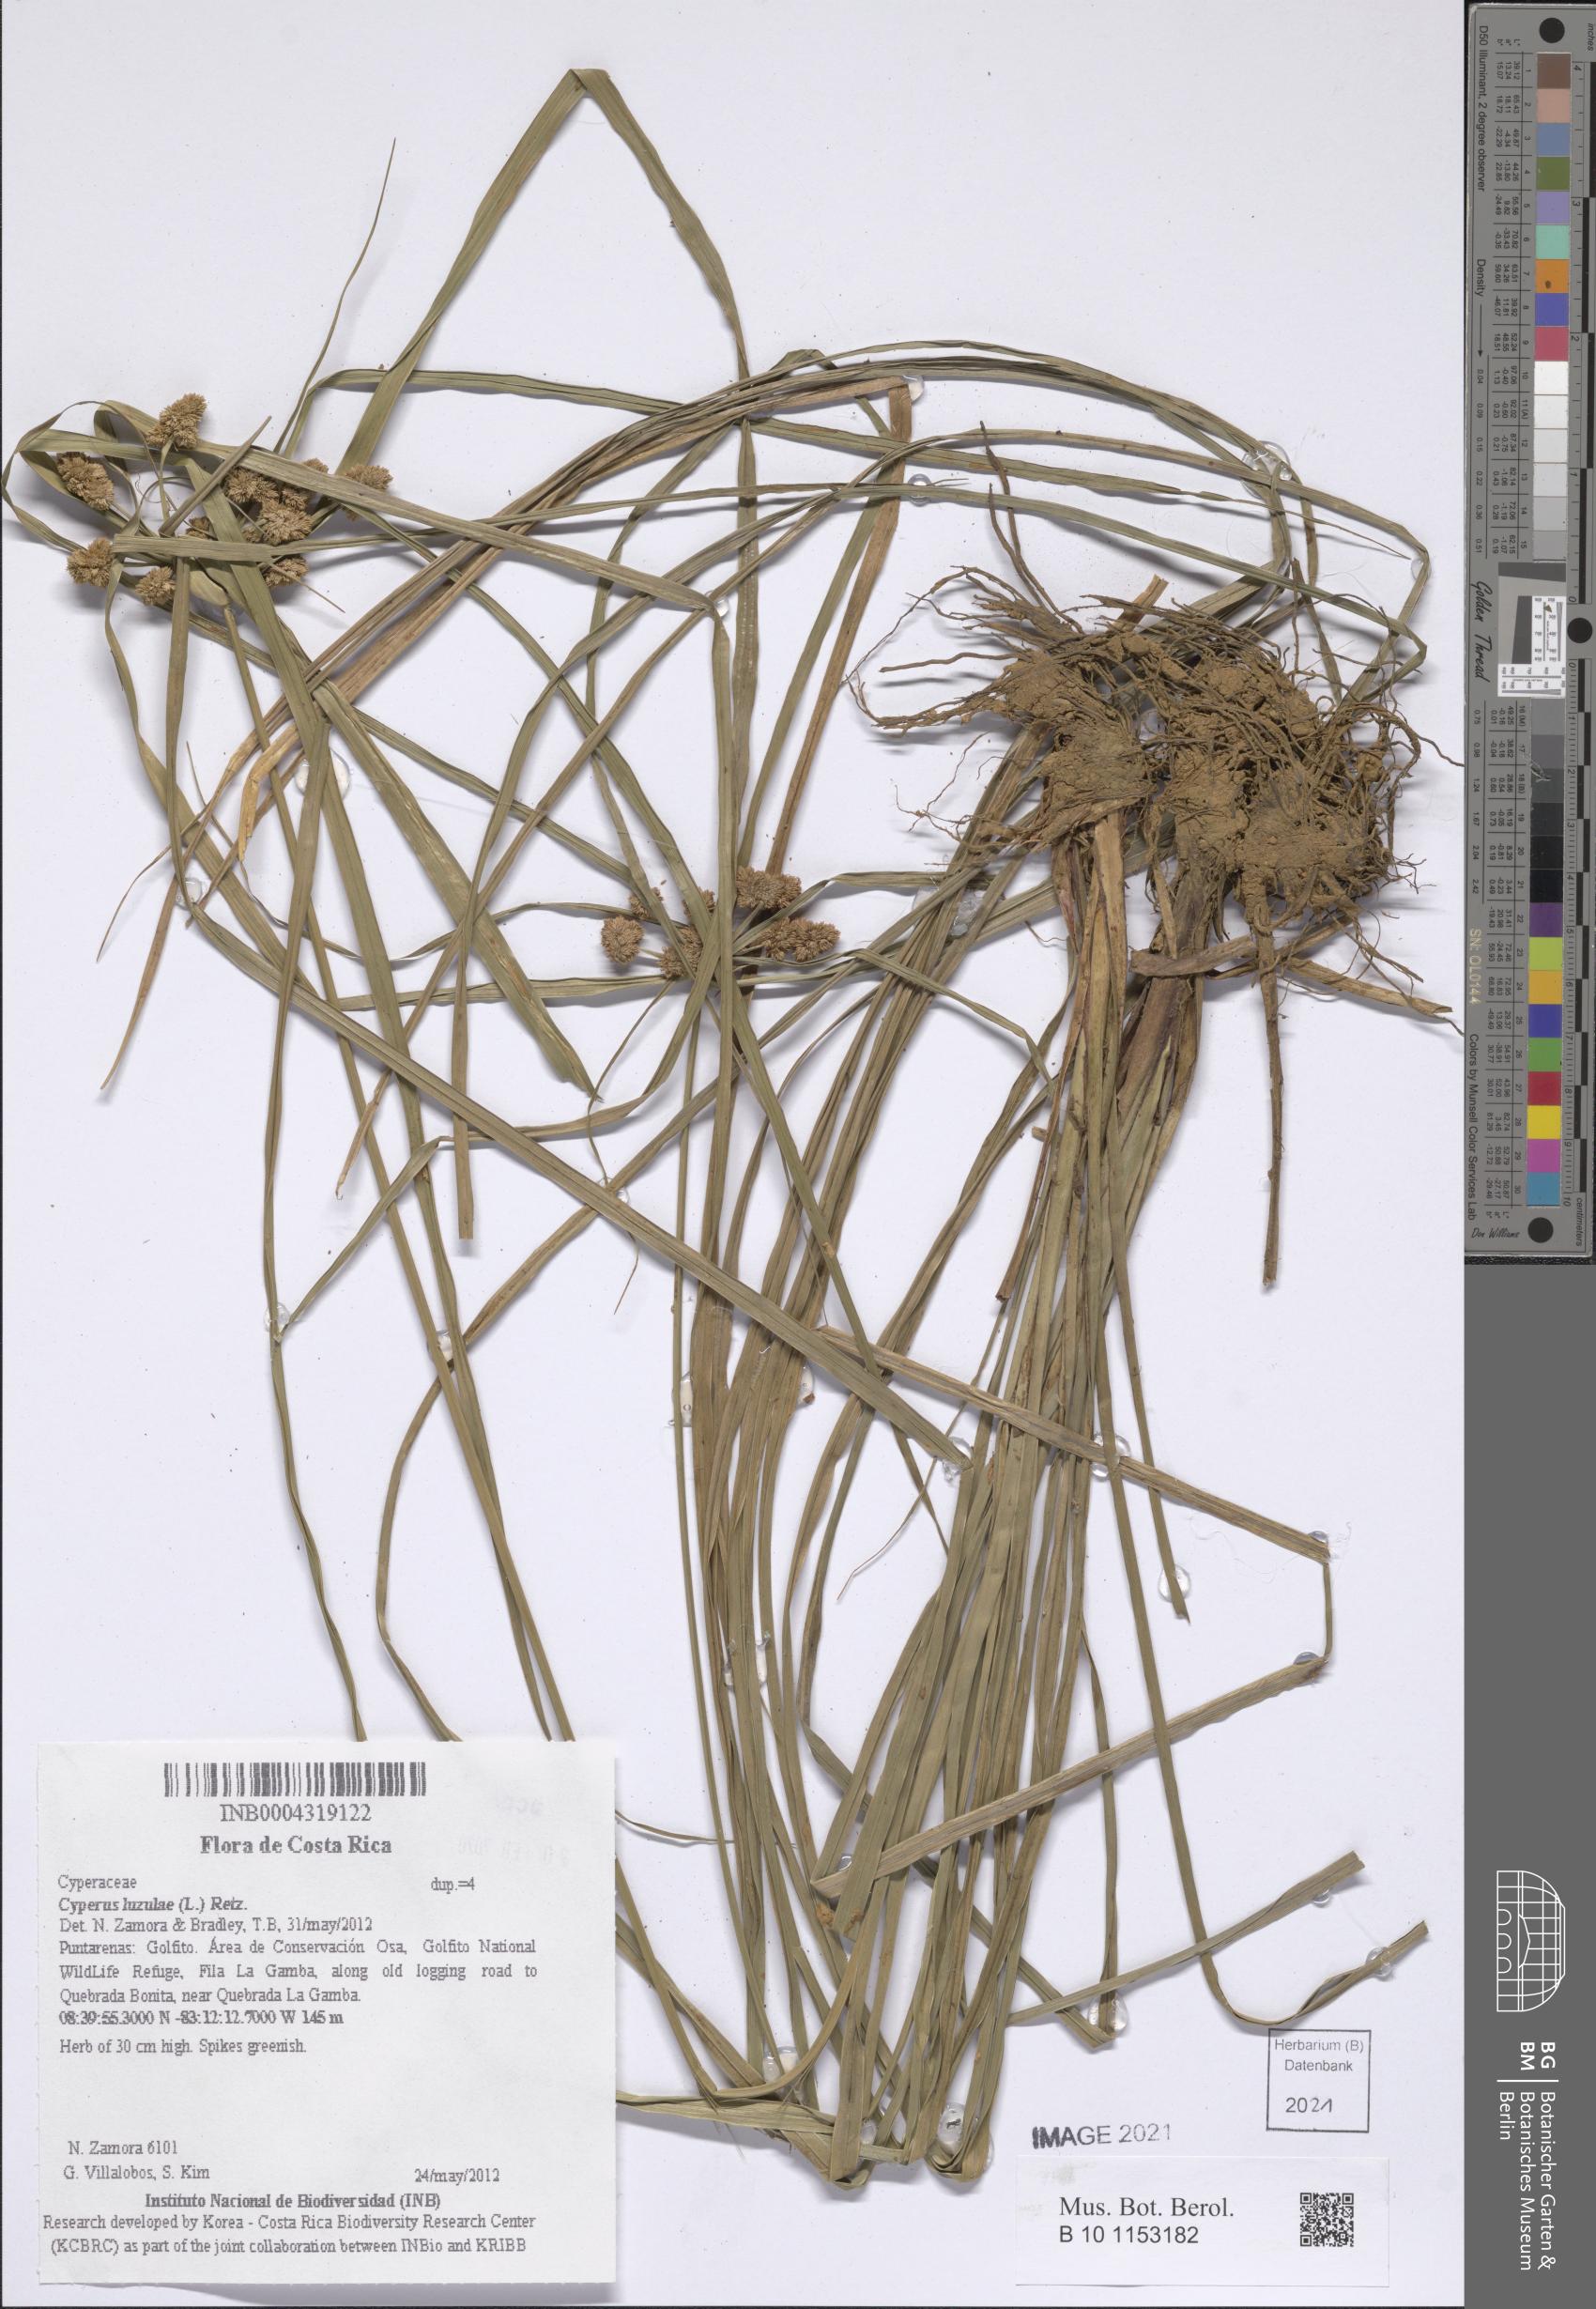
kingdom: Plantae
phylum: Tracheophyta
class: Liliopsida
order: Poales
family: Cyperaceae
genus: Cyperus
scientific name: Cyperus luzulae
